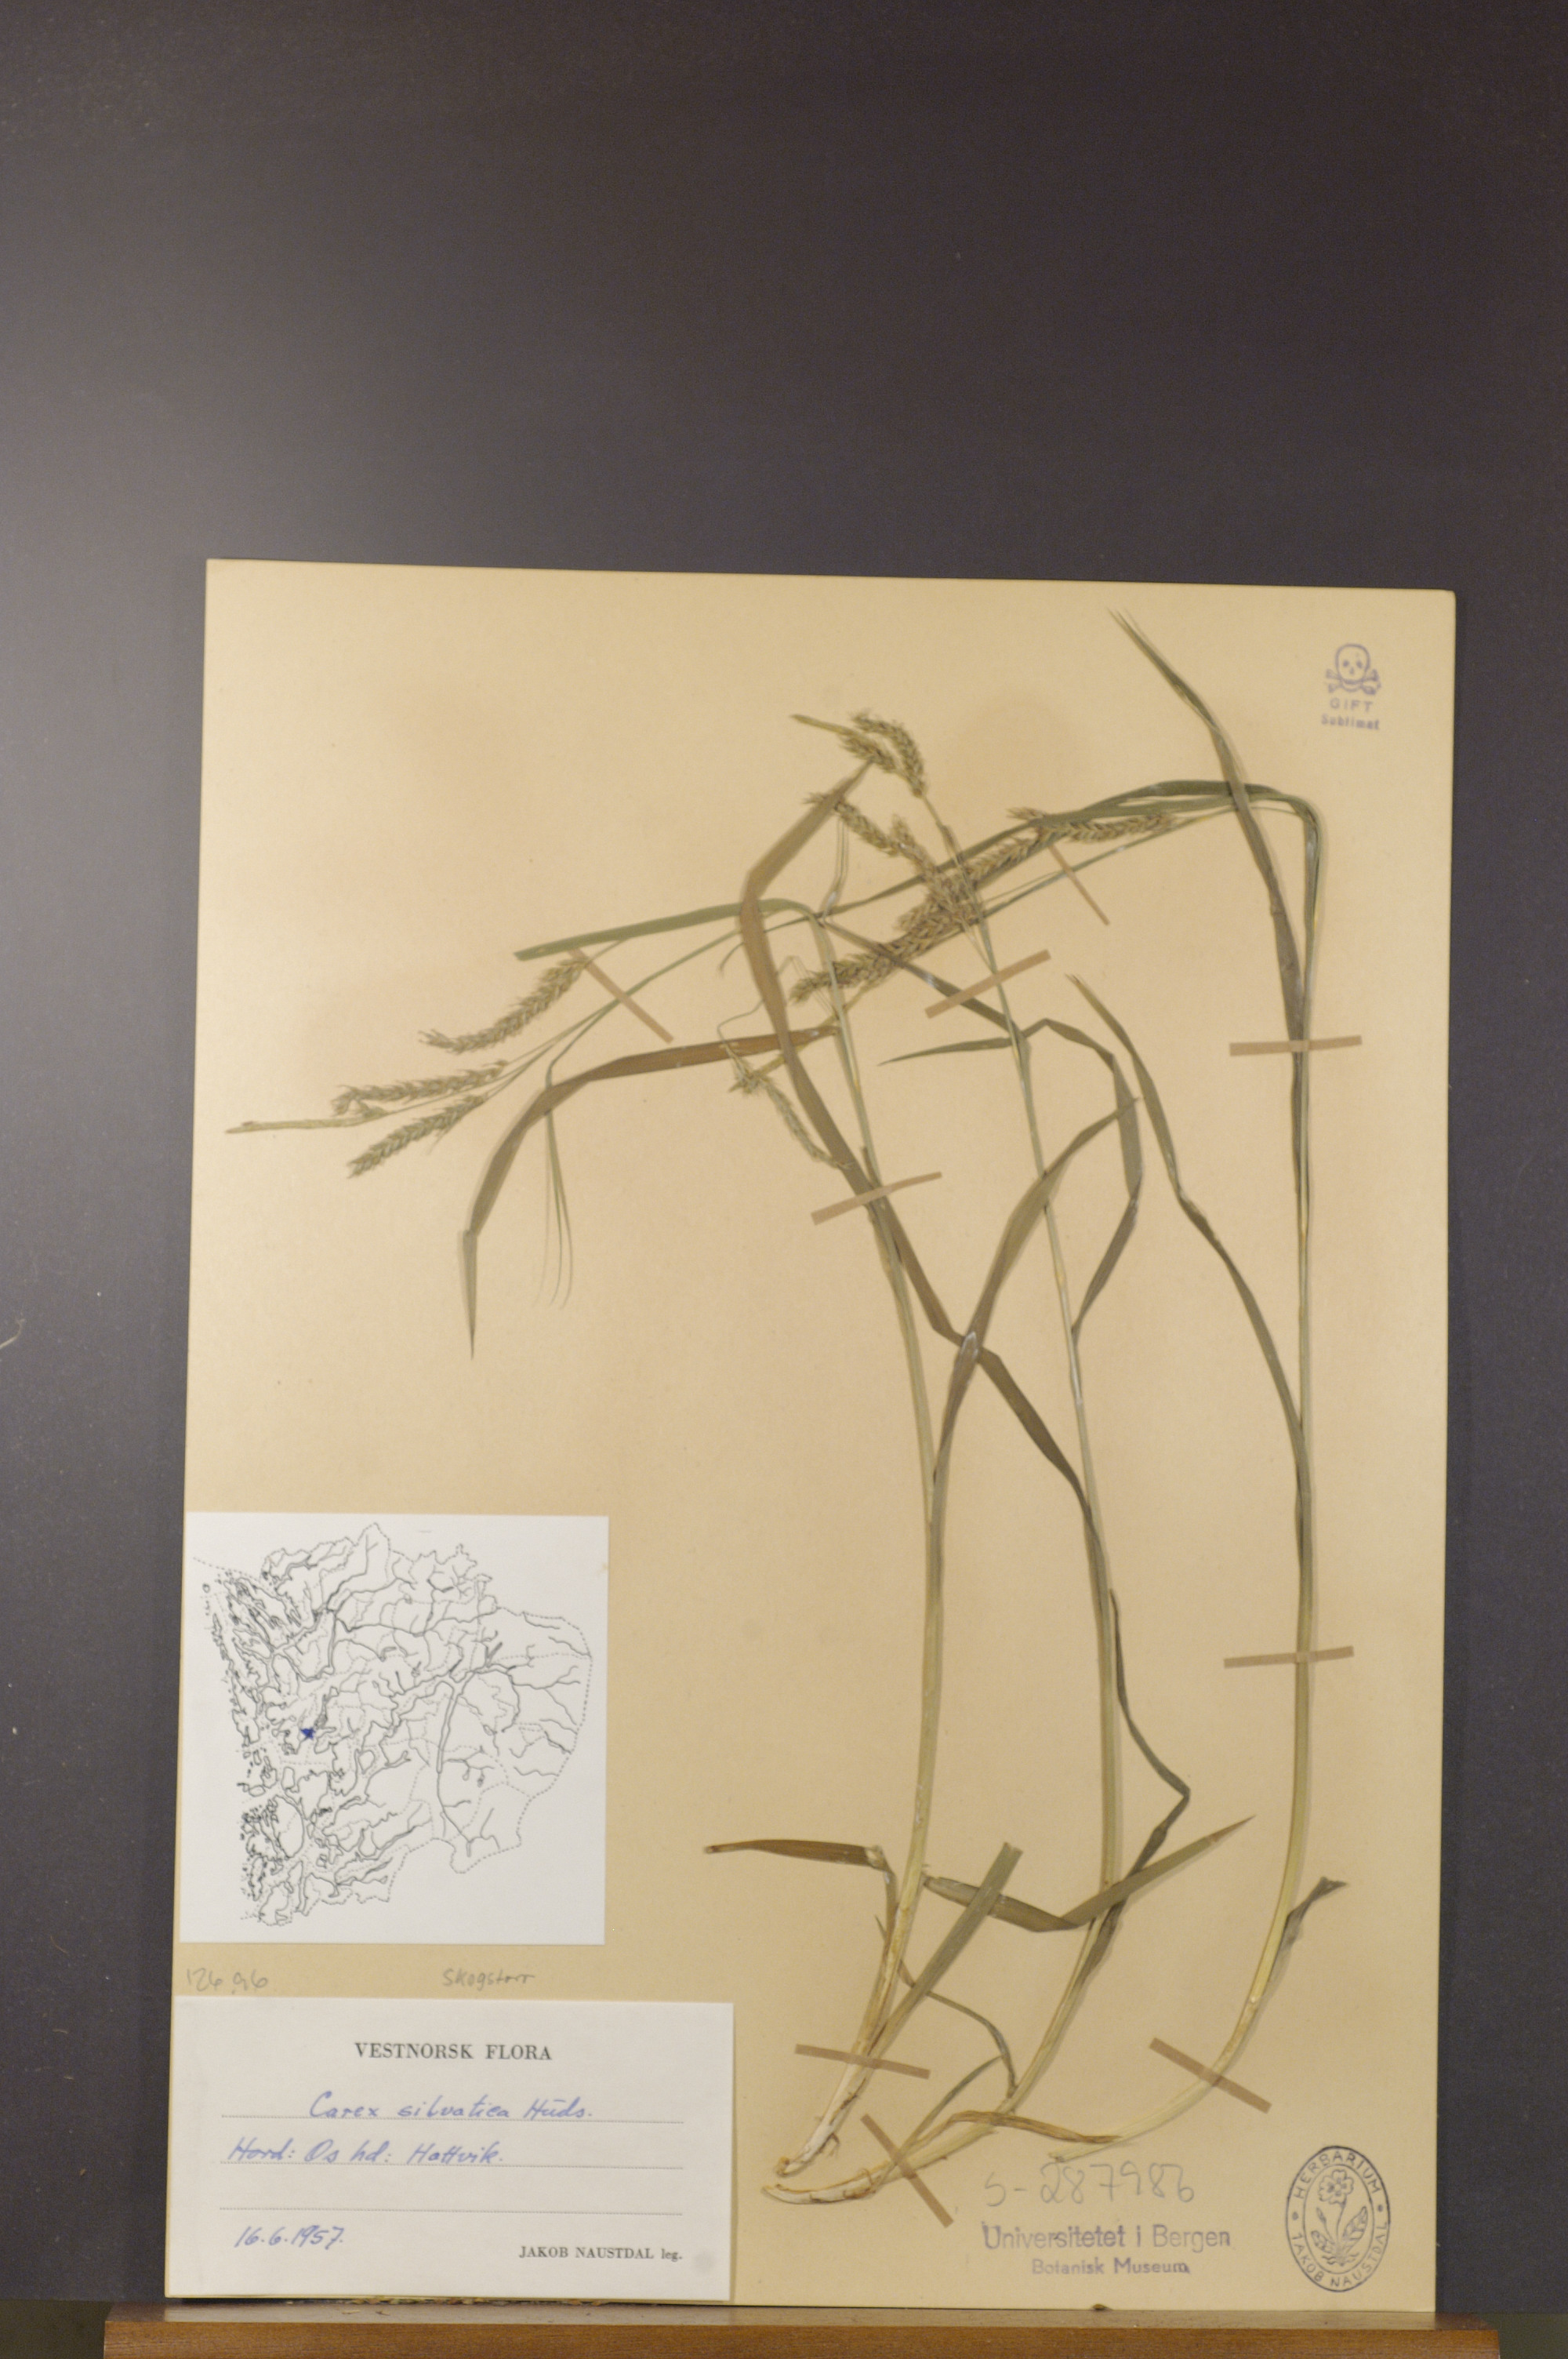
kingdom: Plantae
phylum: Tracheophyta
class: Liliopsida
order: Poales
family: Cyperaceae
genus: Carex
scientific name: Carex sylvatica
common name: Wood-sedge
